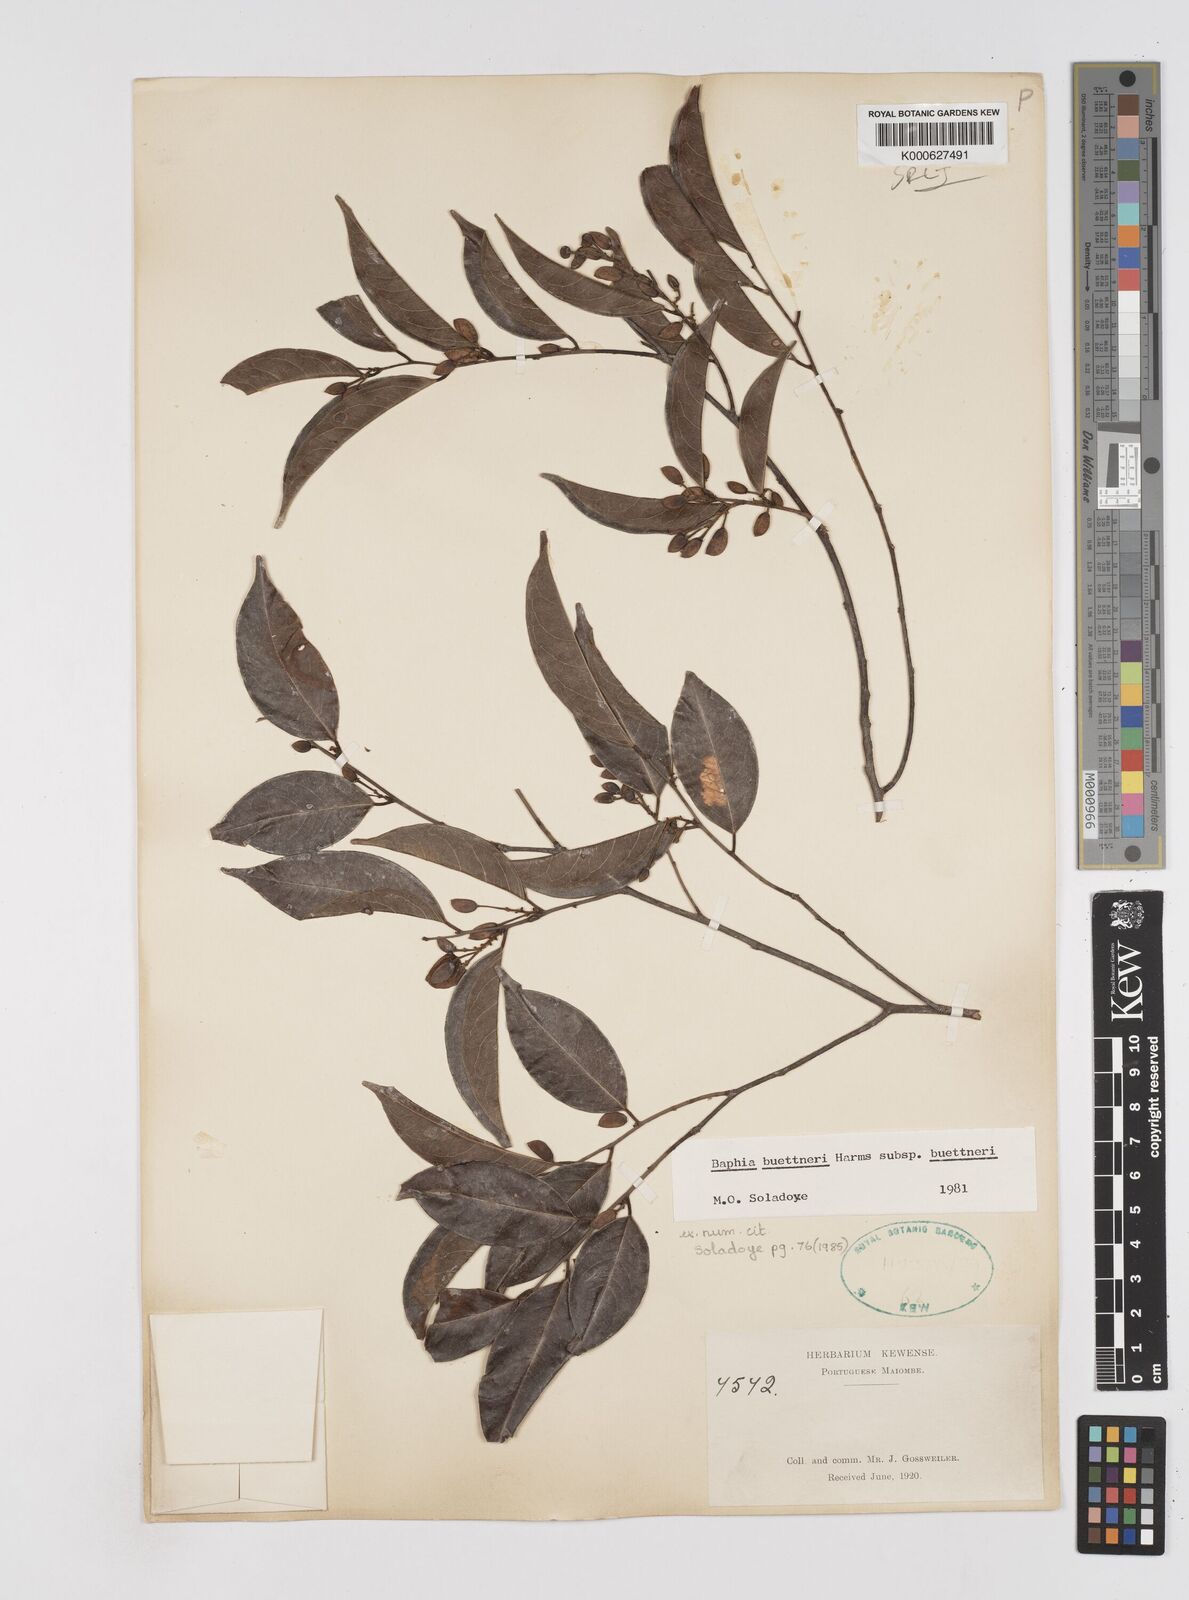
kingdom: Plantae
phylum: Tracheophyta
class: Magnoliopsida
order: Fabales
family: Fabaceae
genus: Baphia
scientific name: Baphia
